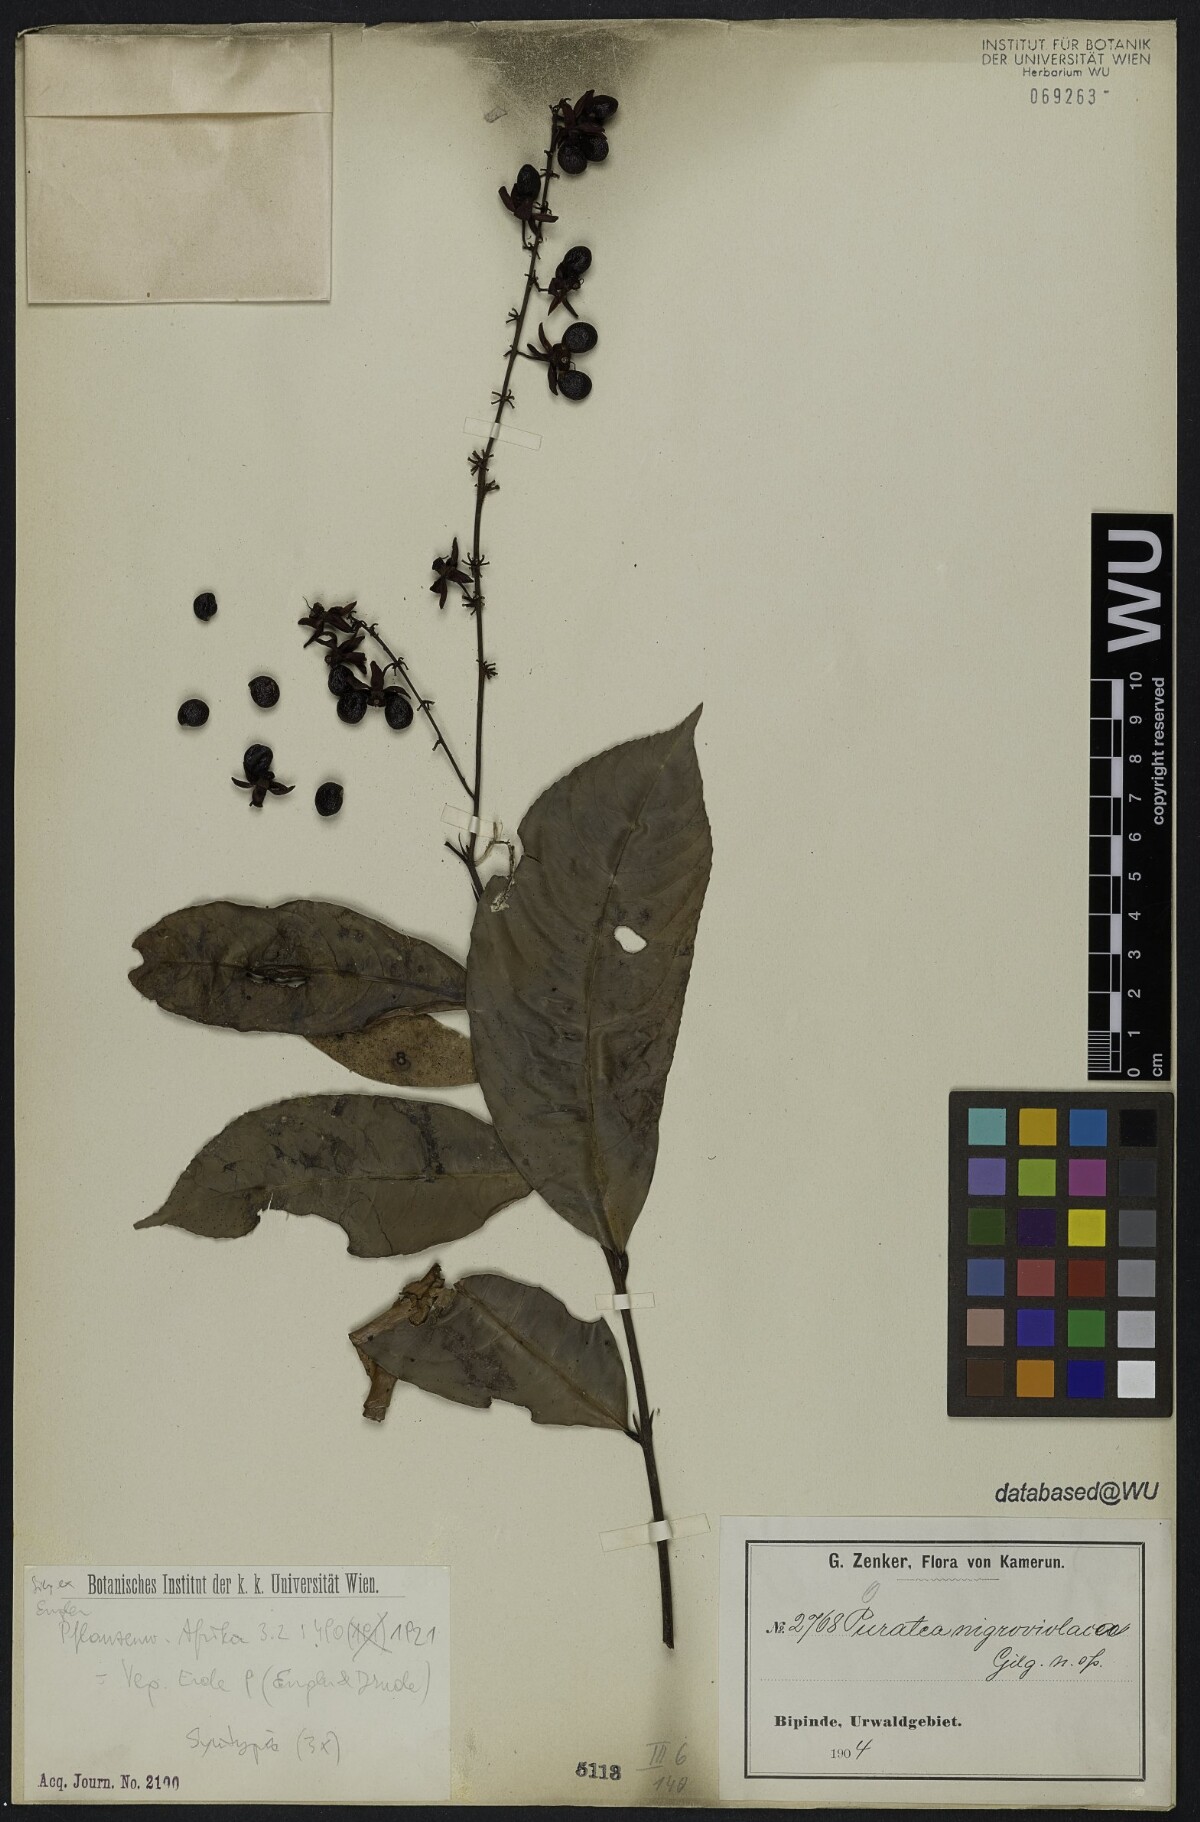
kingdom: Plantae
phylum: Tracheophyta
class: Magnoliopsida
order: Malpighiales
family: Ochnaceae
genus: Ouratea
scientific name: Ouratea nigroviolacea
